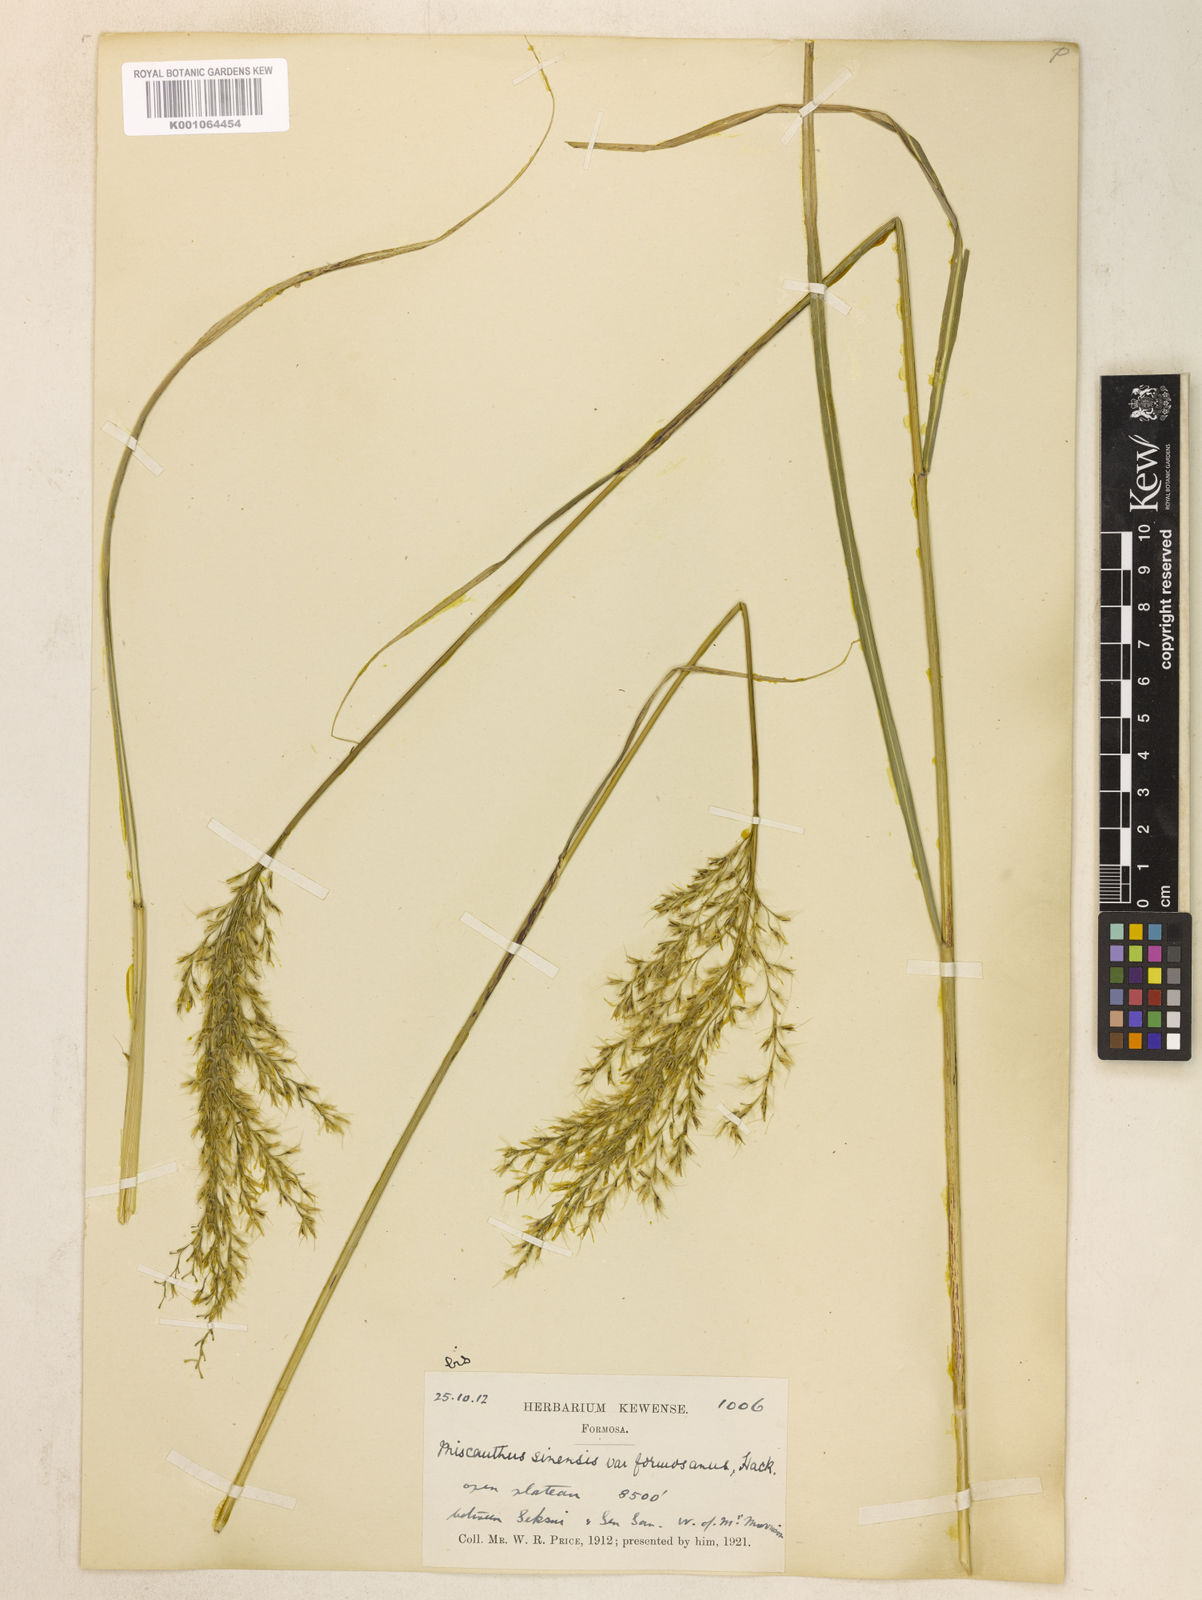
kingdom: Plantae
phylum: Tracheophyta
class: Liliopsida
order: Poales
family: Poaceae
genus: Miscanthus
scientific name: Miscanthus sinensis
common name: Chinese silvergrass
